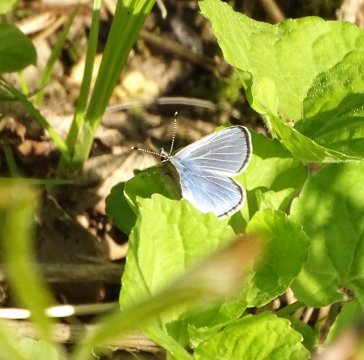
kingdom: Animalia
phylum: Arthropoda
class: Insecta
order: Lepidoptera
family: Lycaenidae
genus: Glaucopsyche
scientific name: Glaucopsyche lygdamus
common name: Silvery Blue
